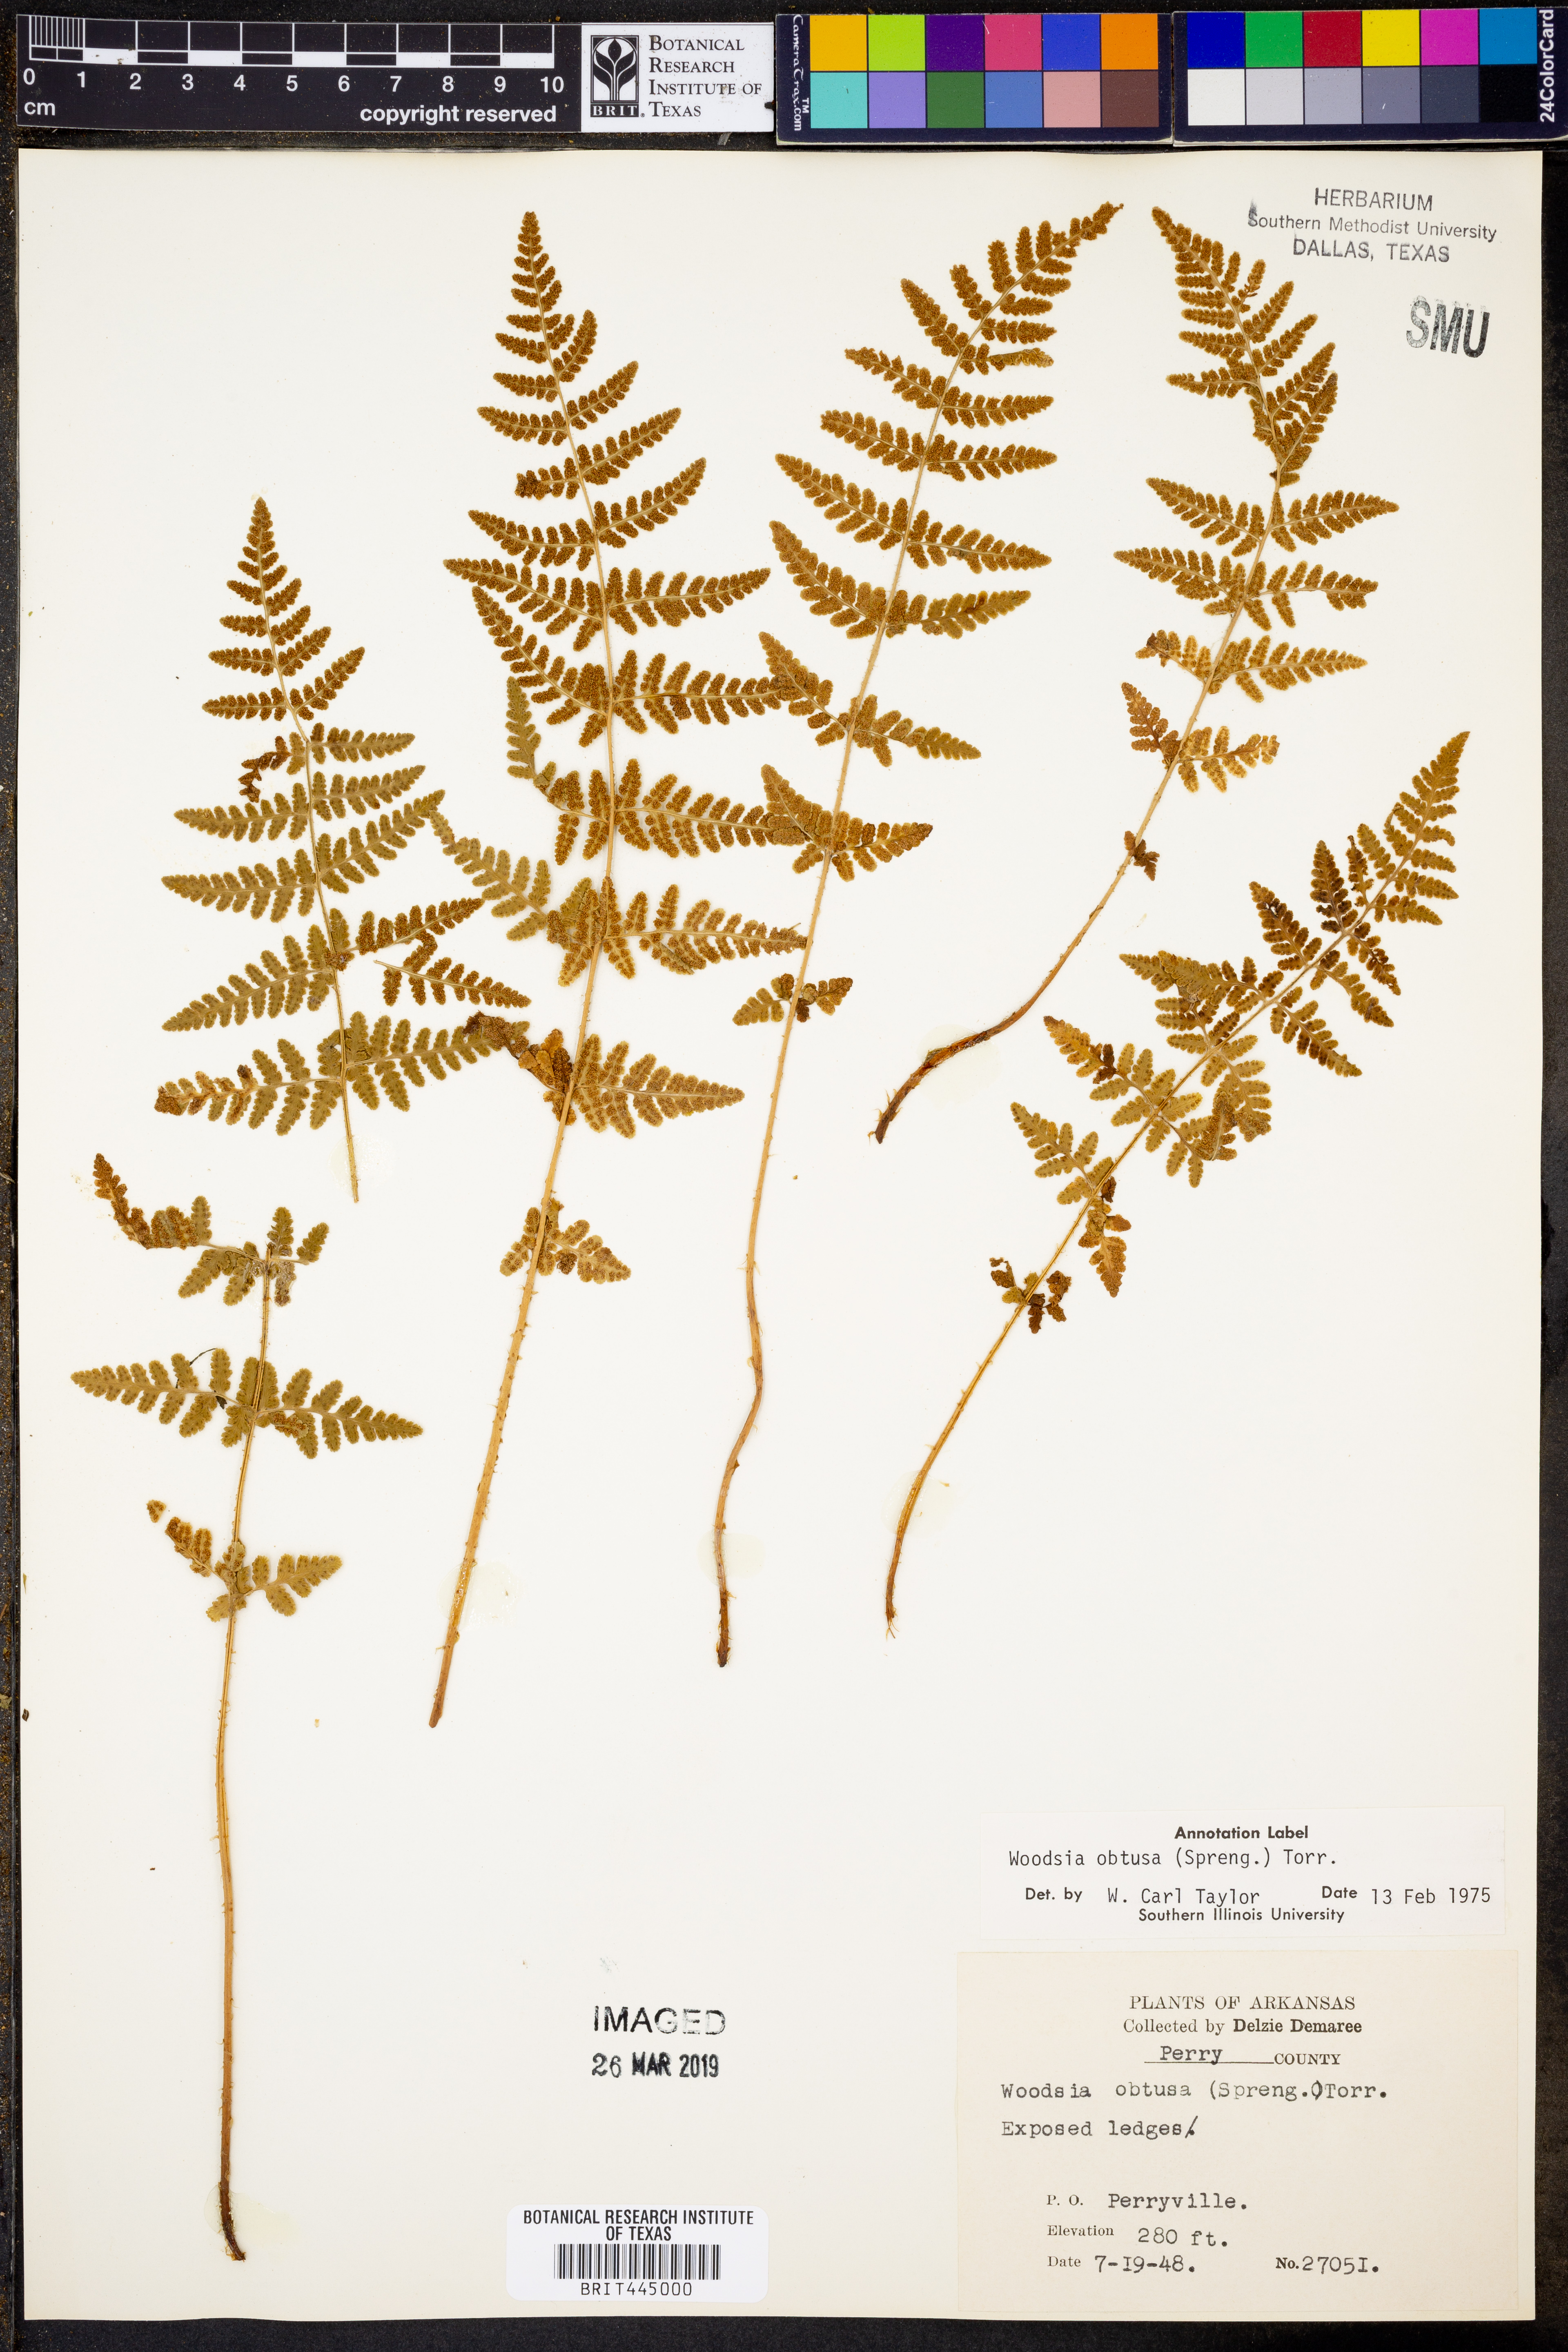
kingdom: Plantae
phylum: Tracheophyta
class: Polypodiopsida
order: Polypodiales
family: Woodsiaceae
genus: Physematium
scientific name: Physematium obtusum
